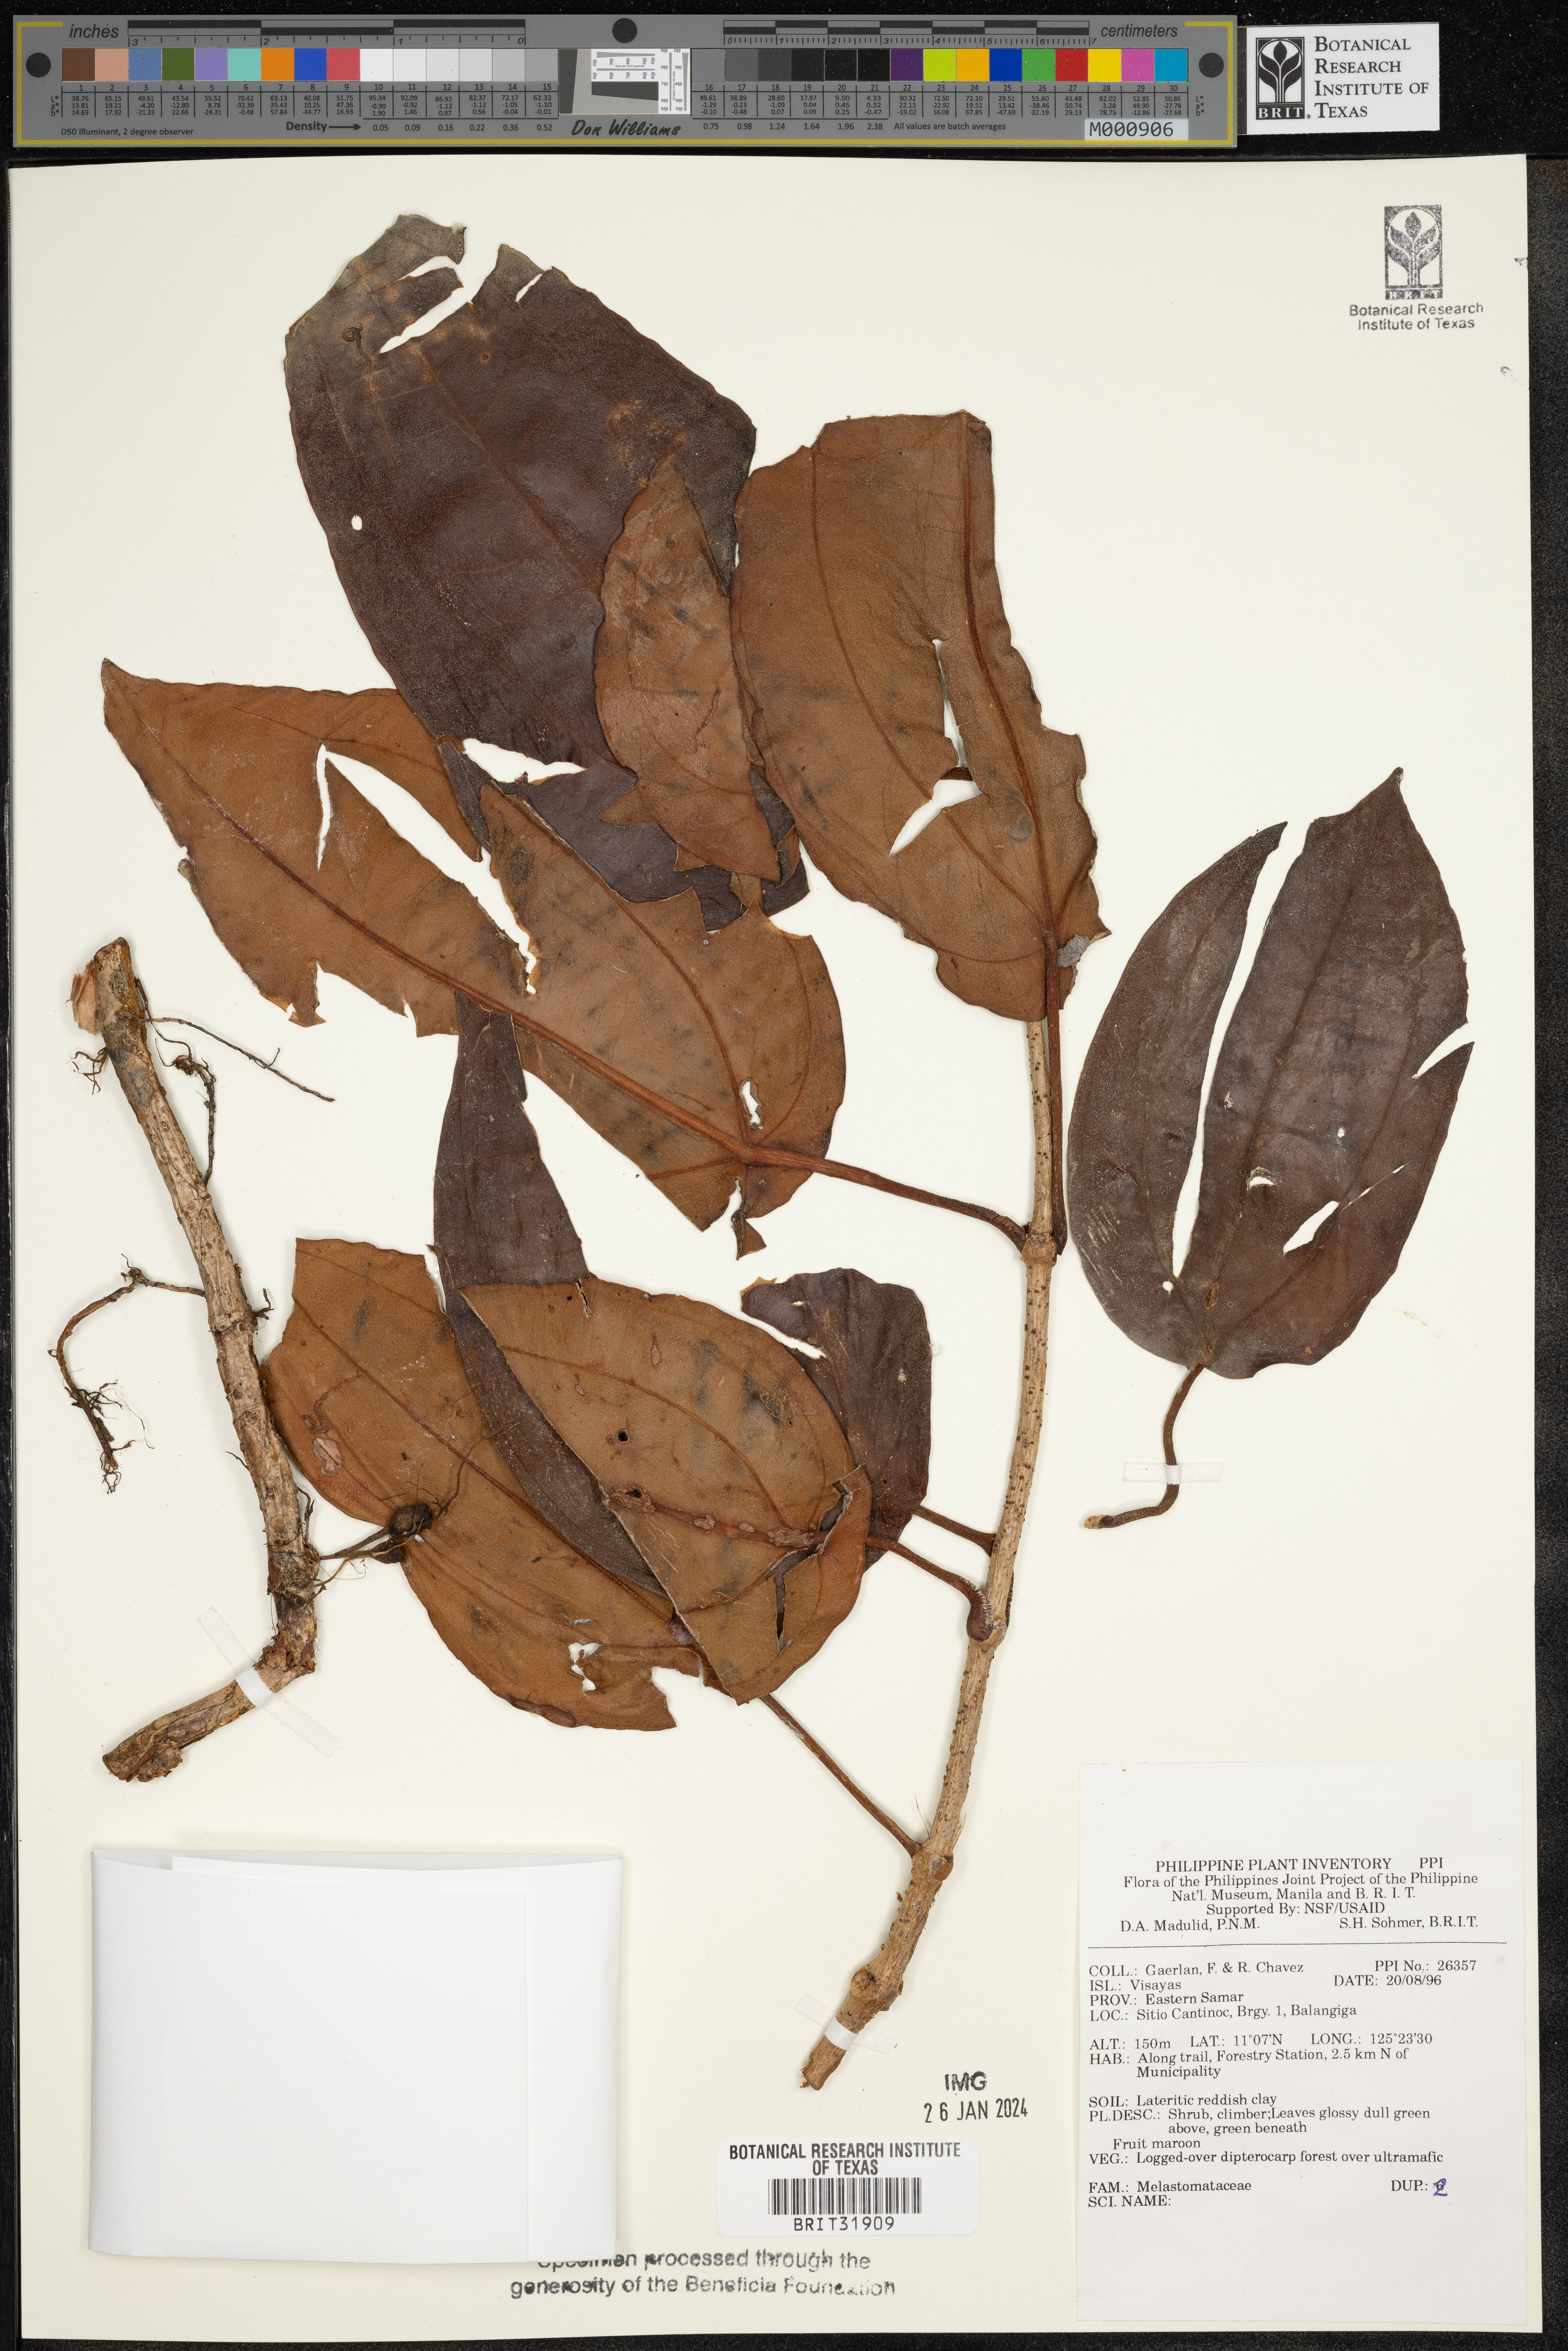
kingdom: Plantae
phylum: Tracheophyta
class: Magnoliopsida
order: Myrtales
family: Melastomataceae
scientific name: Melastomataceae
